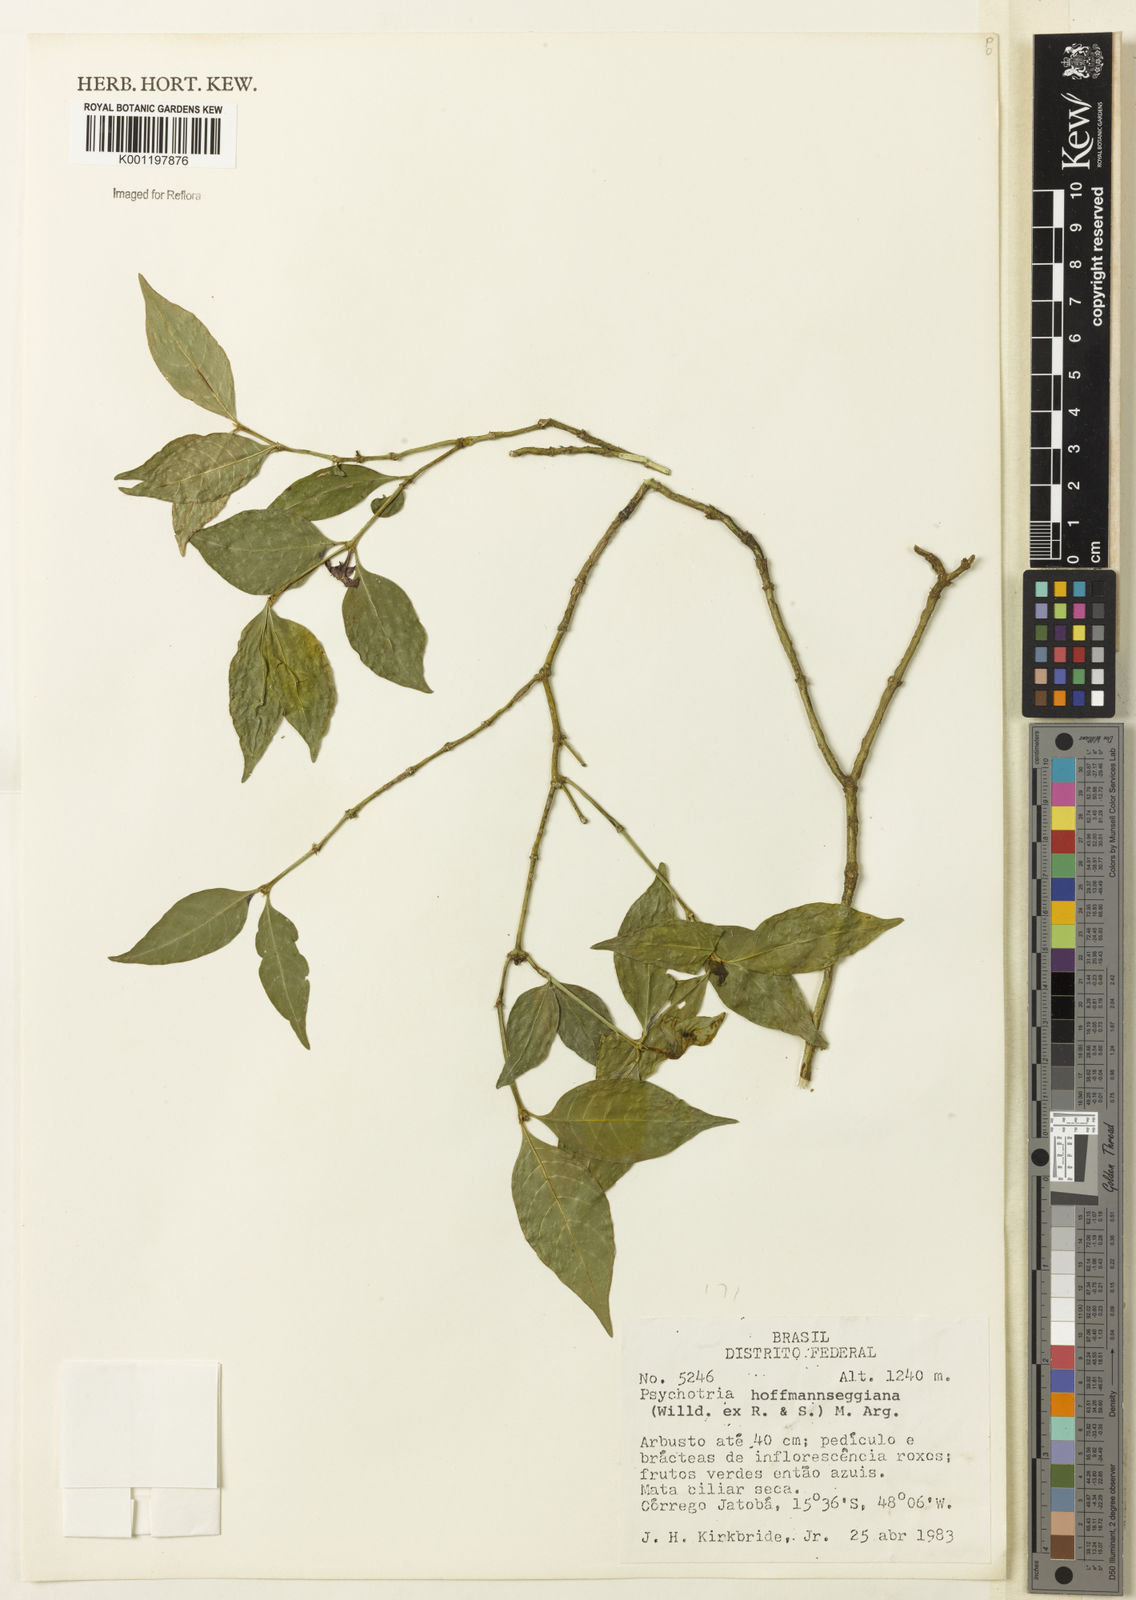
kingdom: Plantae
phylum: Tracheophyta
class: Magnoliopsida
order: Gentianales
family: Rubiaceae
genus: Psychotria
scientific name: Psychotria
